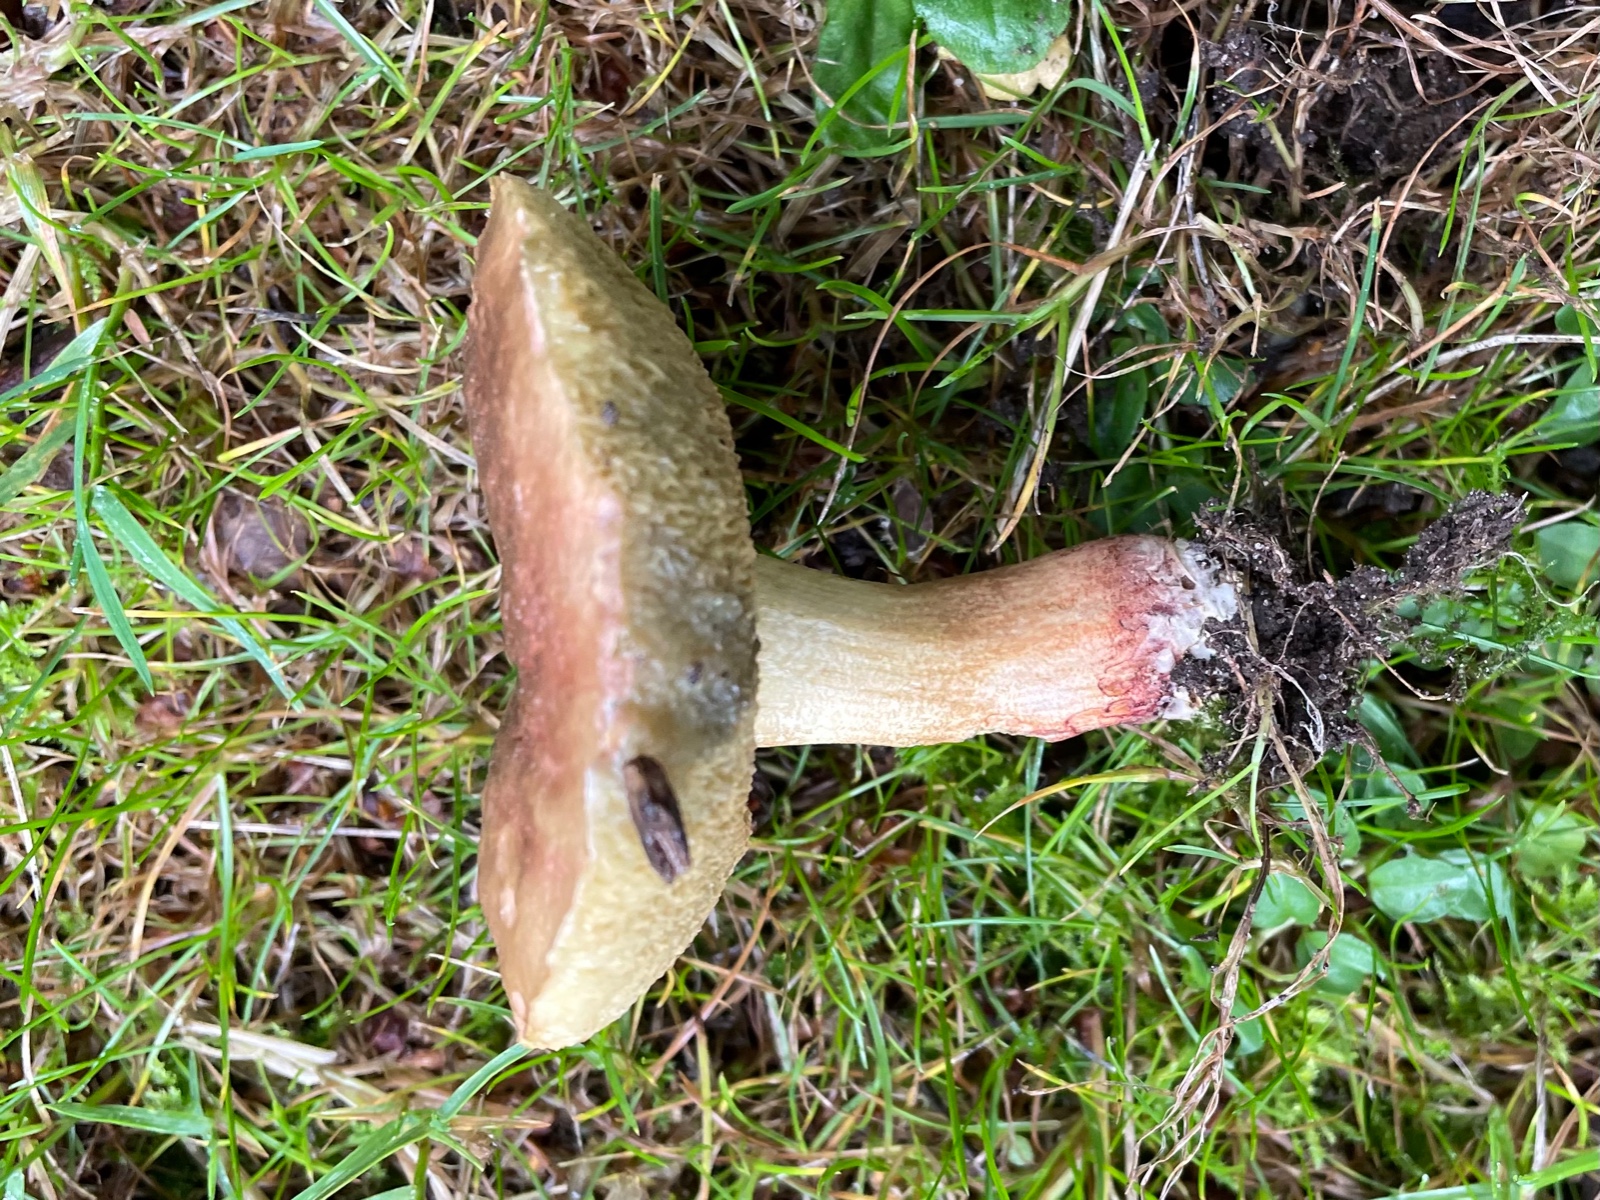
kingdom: Fungi
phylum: Basidiomycota
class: Agaricomycetes
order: Boletales
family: Boletaceae
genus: Xerocomellus
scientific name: Xerocomellus cisalpinus
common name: finsprukken rørhat
